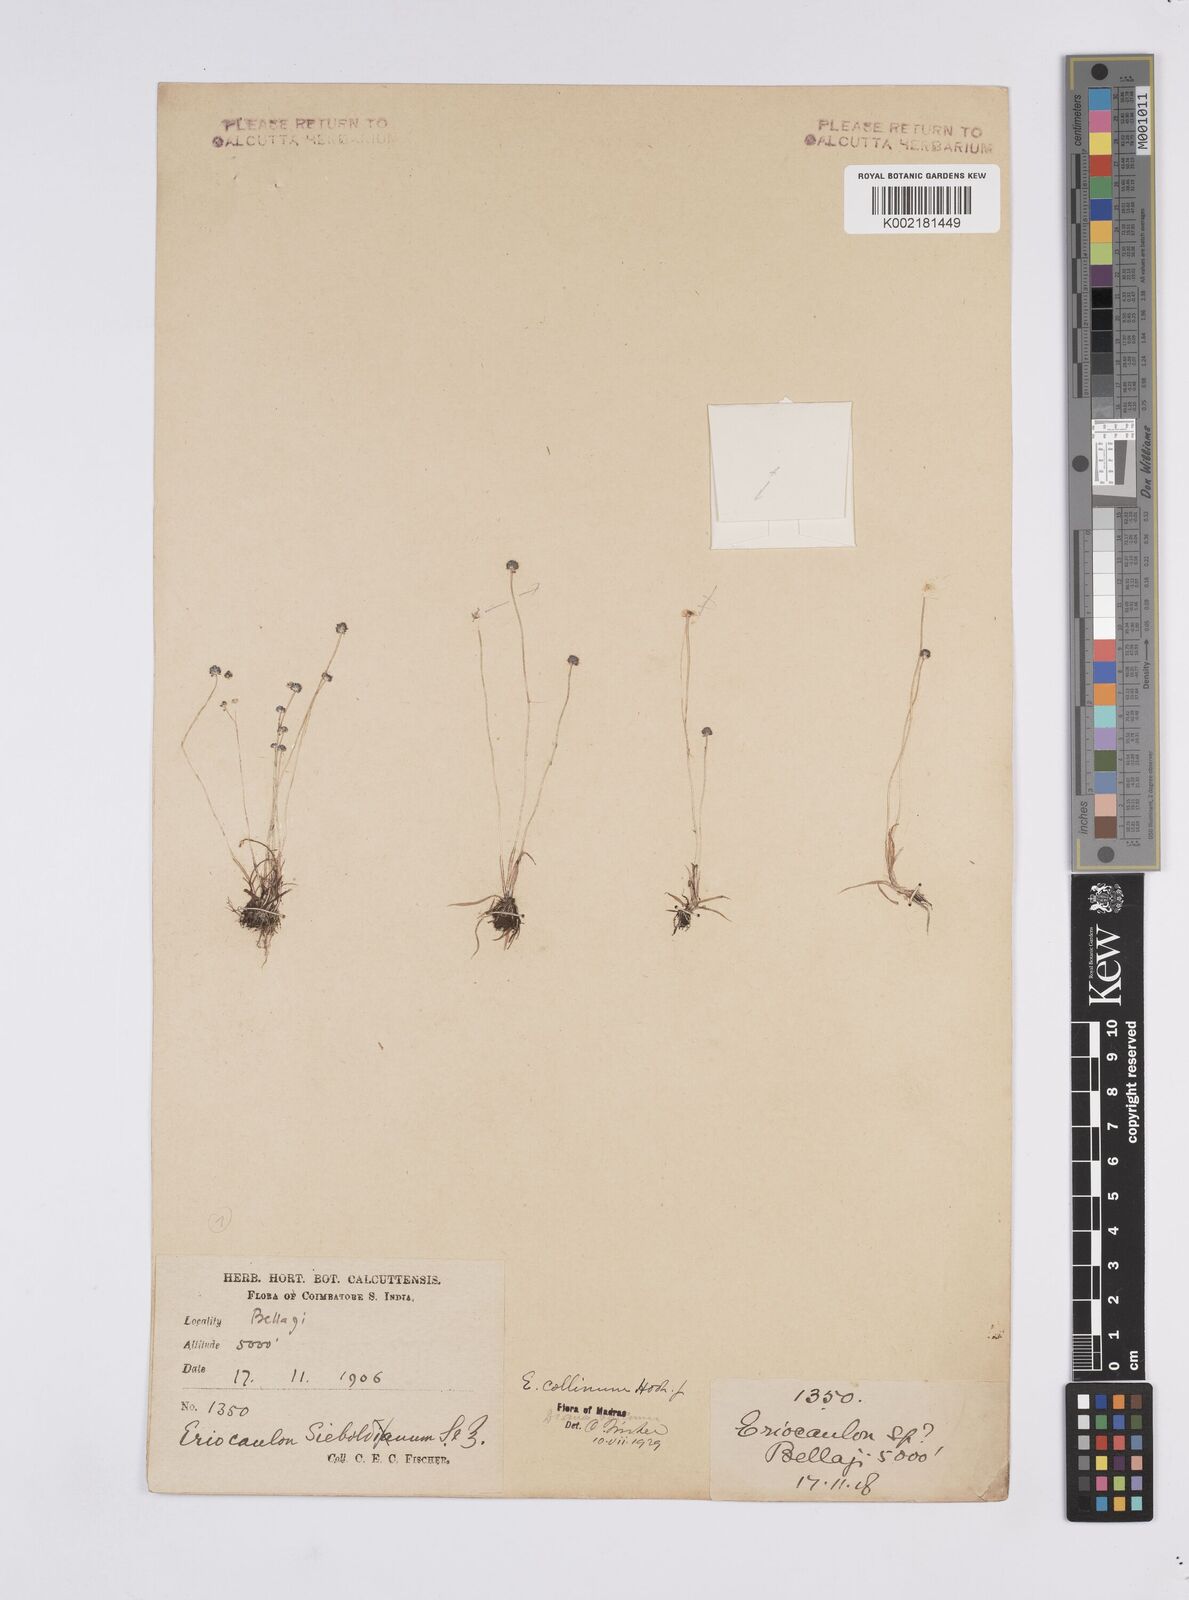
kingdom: Plantae
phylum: Tracheophyta
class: Liliopsida
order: Poales
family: Eriocaulaceae
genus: Eriocaulon
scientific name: Eriocaulon odoratum
